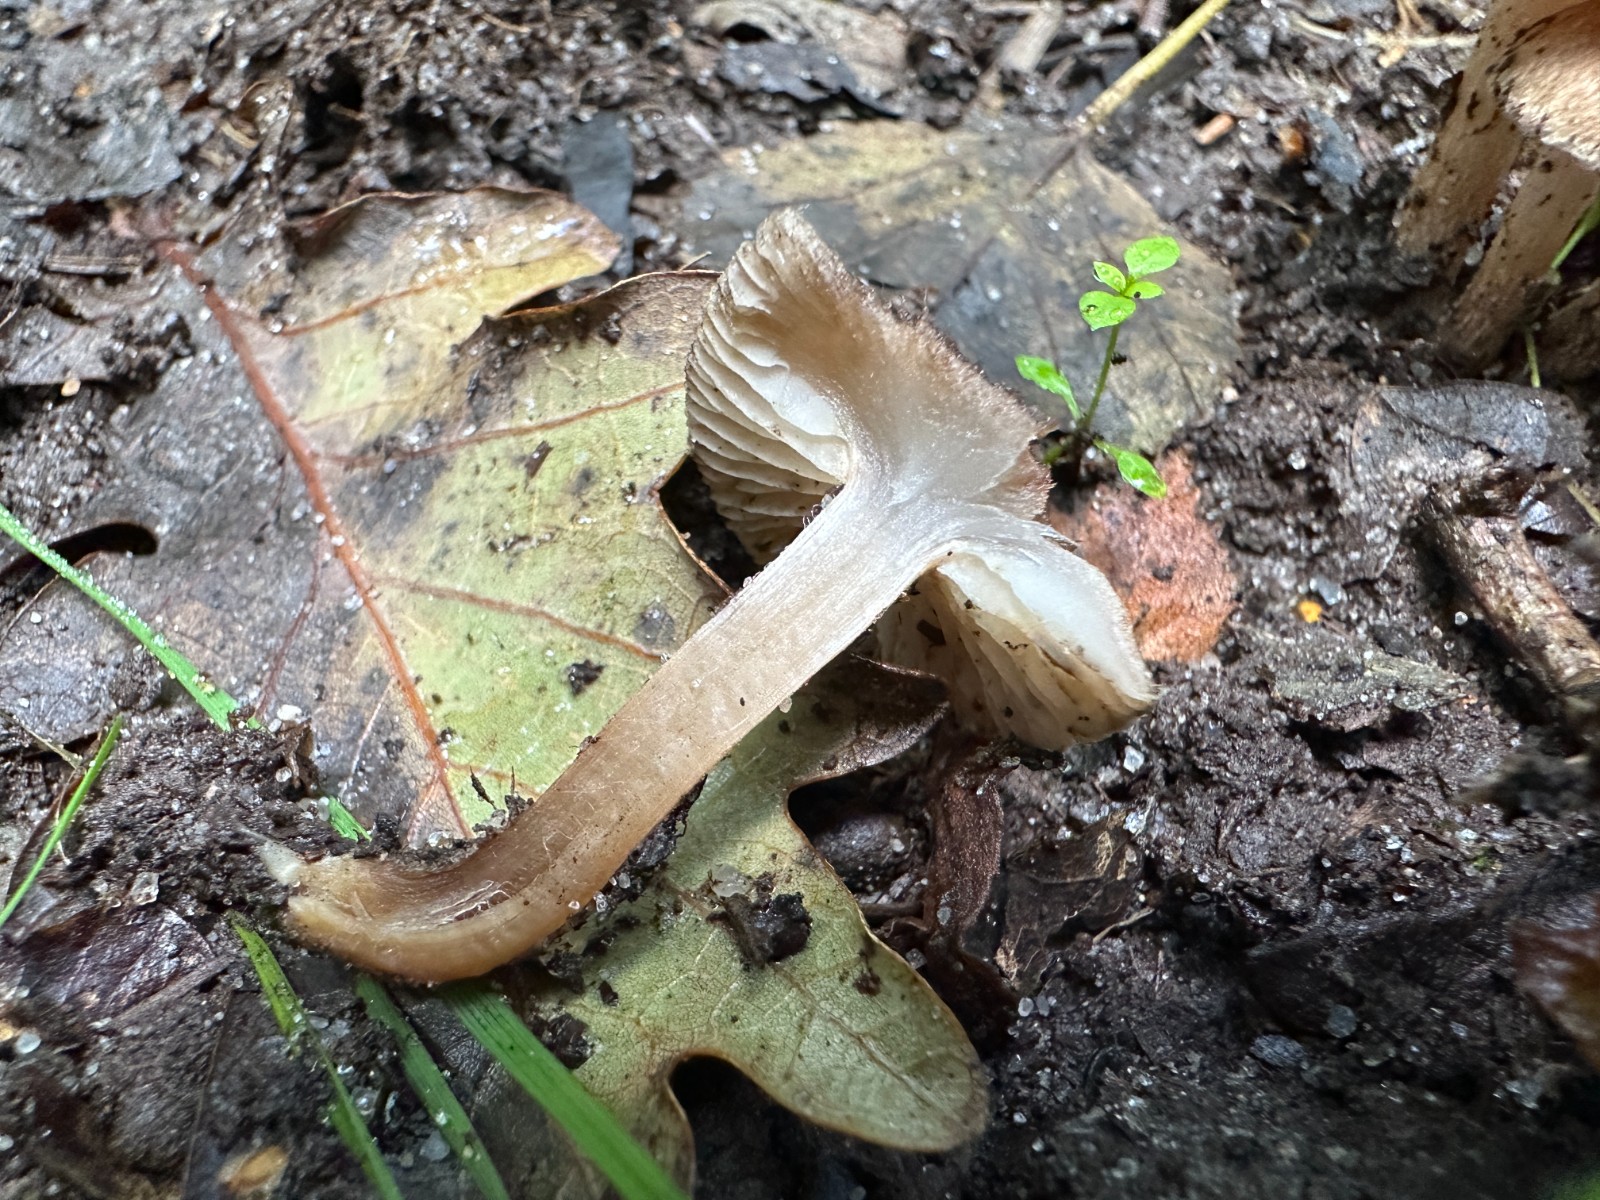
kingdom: Fungi
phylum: Basidiomycota
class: Agaricomycetes
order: Agaricales
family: Inocybaceae
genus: Inocybe
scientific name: Inocybe
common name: trævlhat
